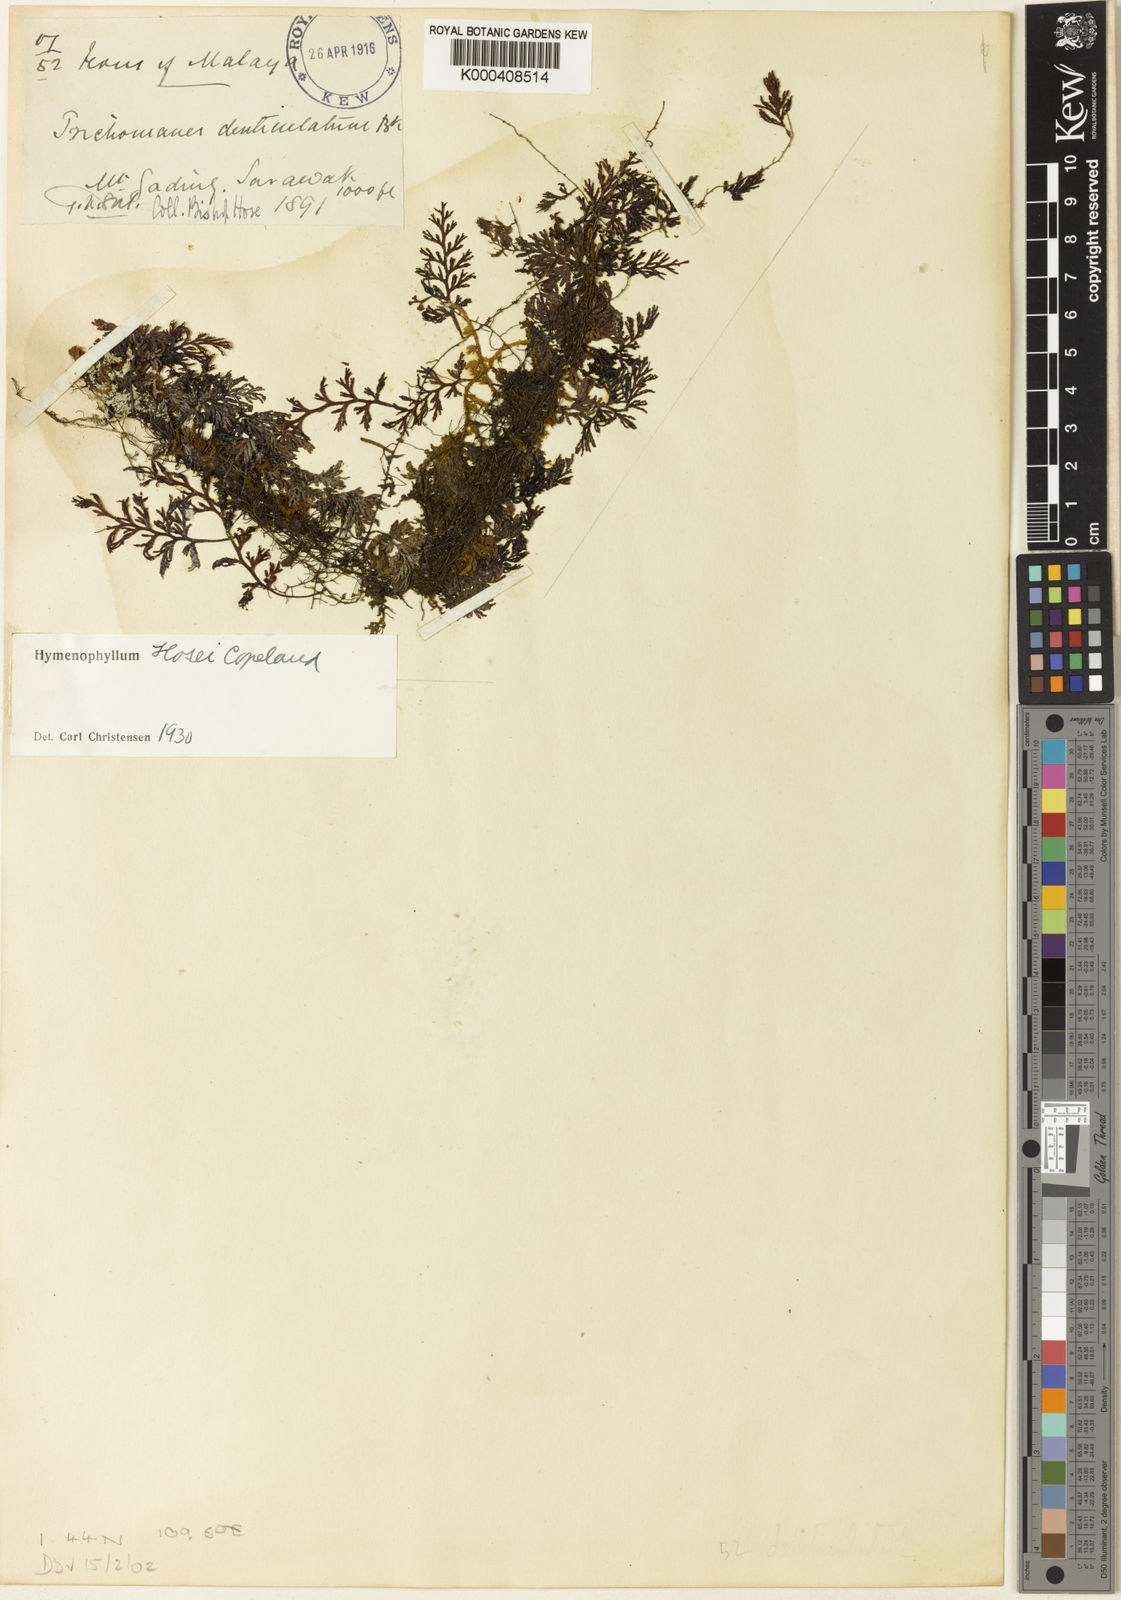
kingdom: Plantae
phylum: Tracheophyta
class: Polypodiopsida
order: Hymenophyllales
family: Hymenophyllaceae
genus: Hymenophyllum
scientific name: Hymenophyllum hosei
